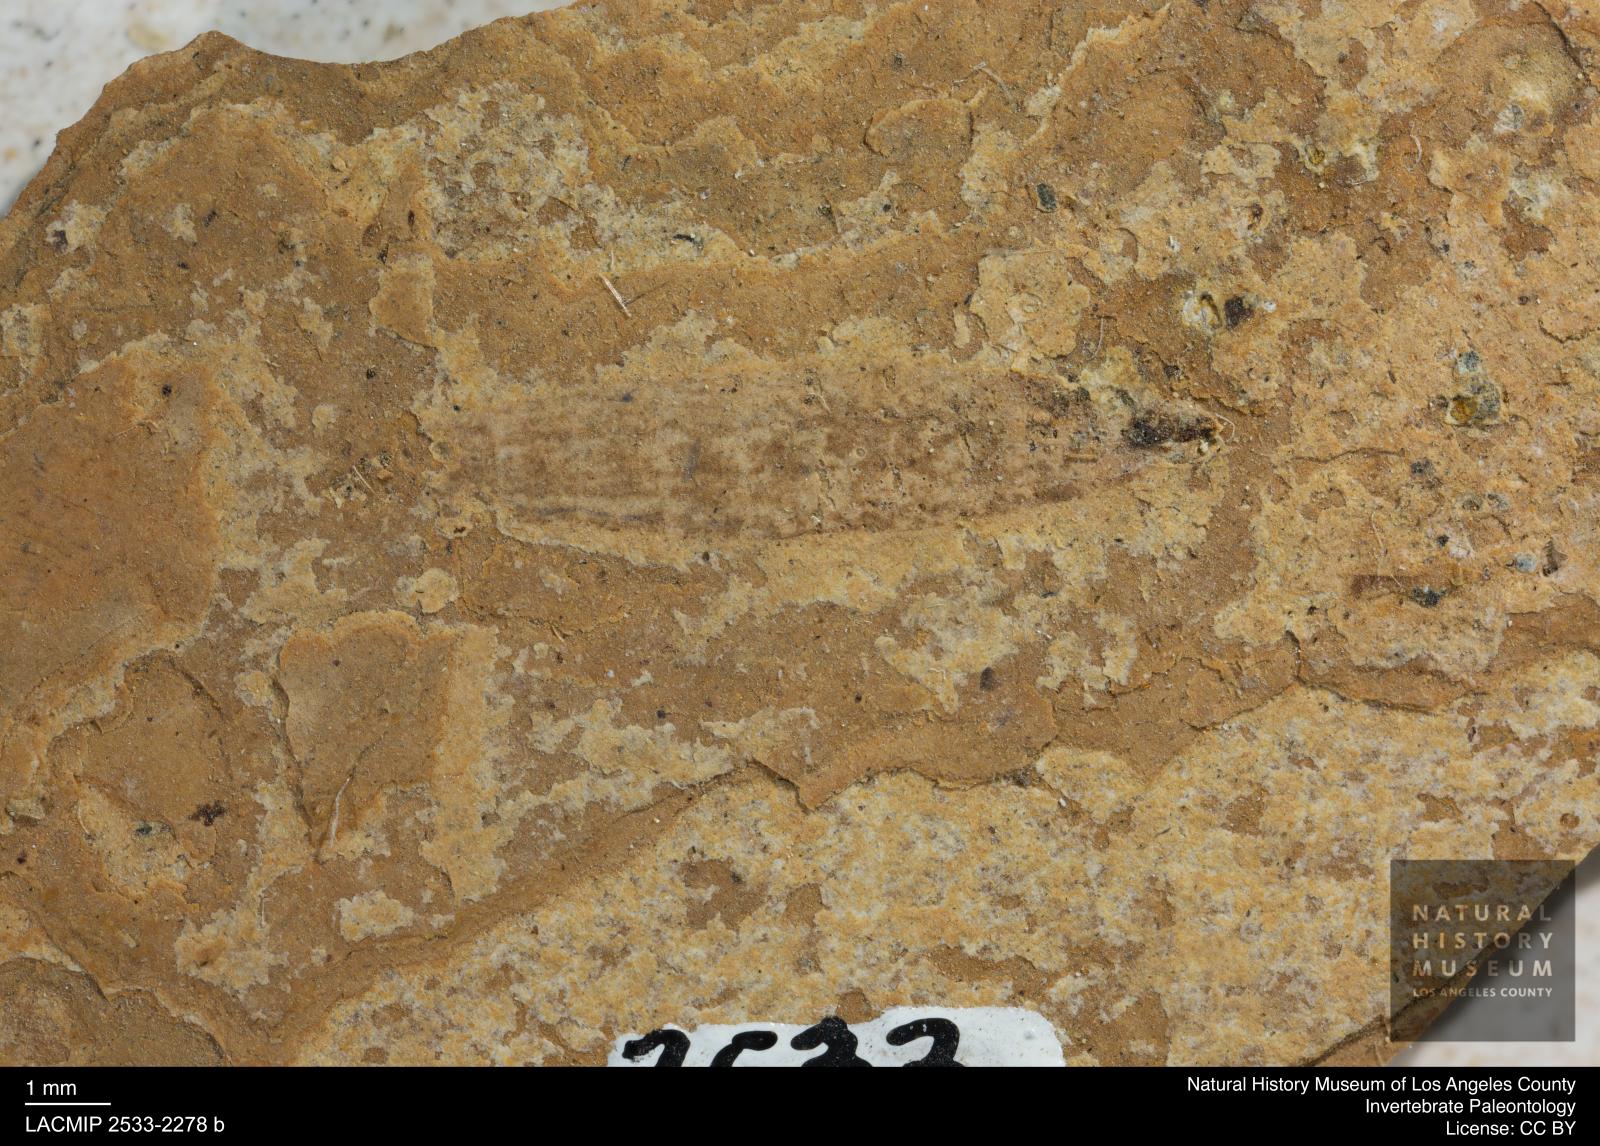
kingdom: Animalia
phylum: Arthropoda
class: Insecta
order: Diptera
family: Stratiomyidae
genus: Odontomyia
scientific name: Odontomyia
